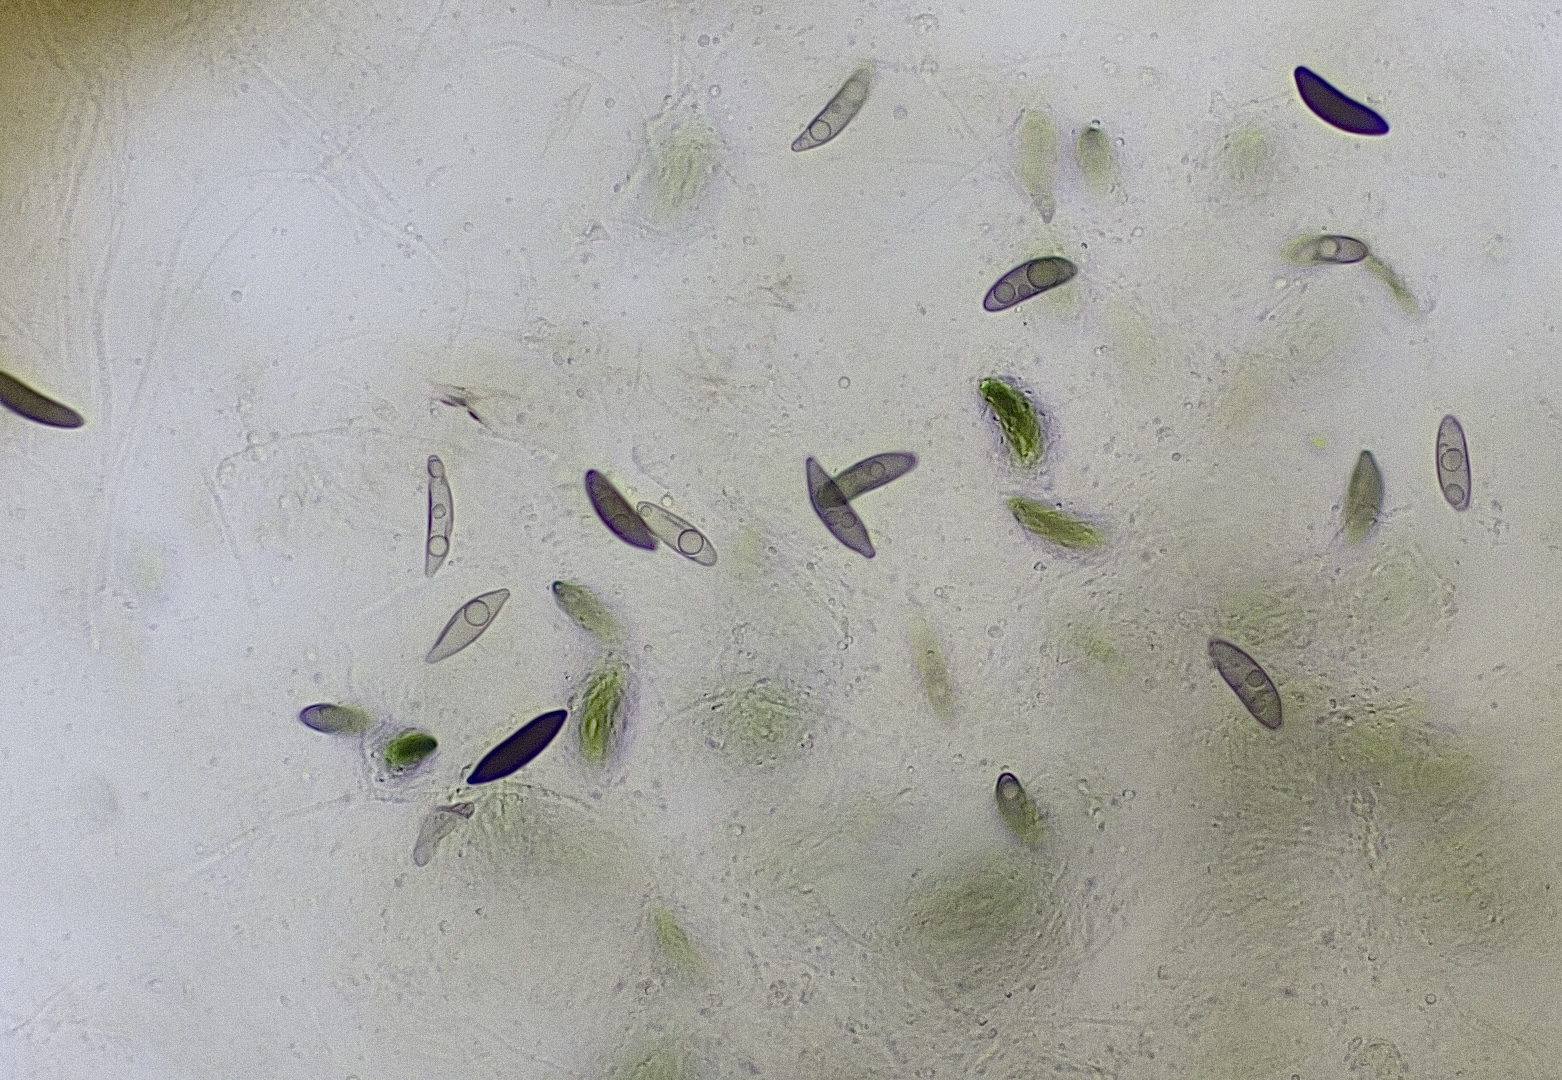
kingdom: Fungi
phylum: Ascomycota
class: Sordariomycetes
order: Xylariales
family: Hypoxylaceae
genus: Daldinia
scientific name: Daldinia concentrica
